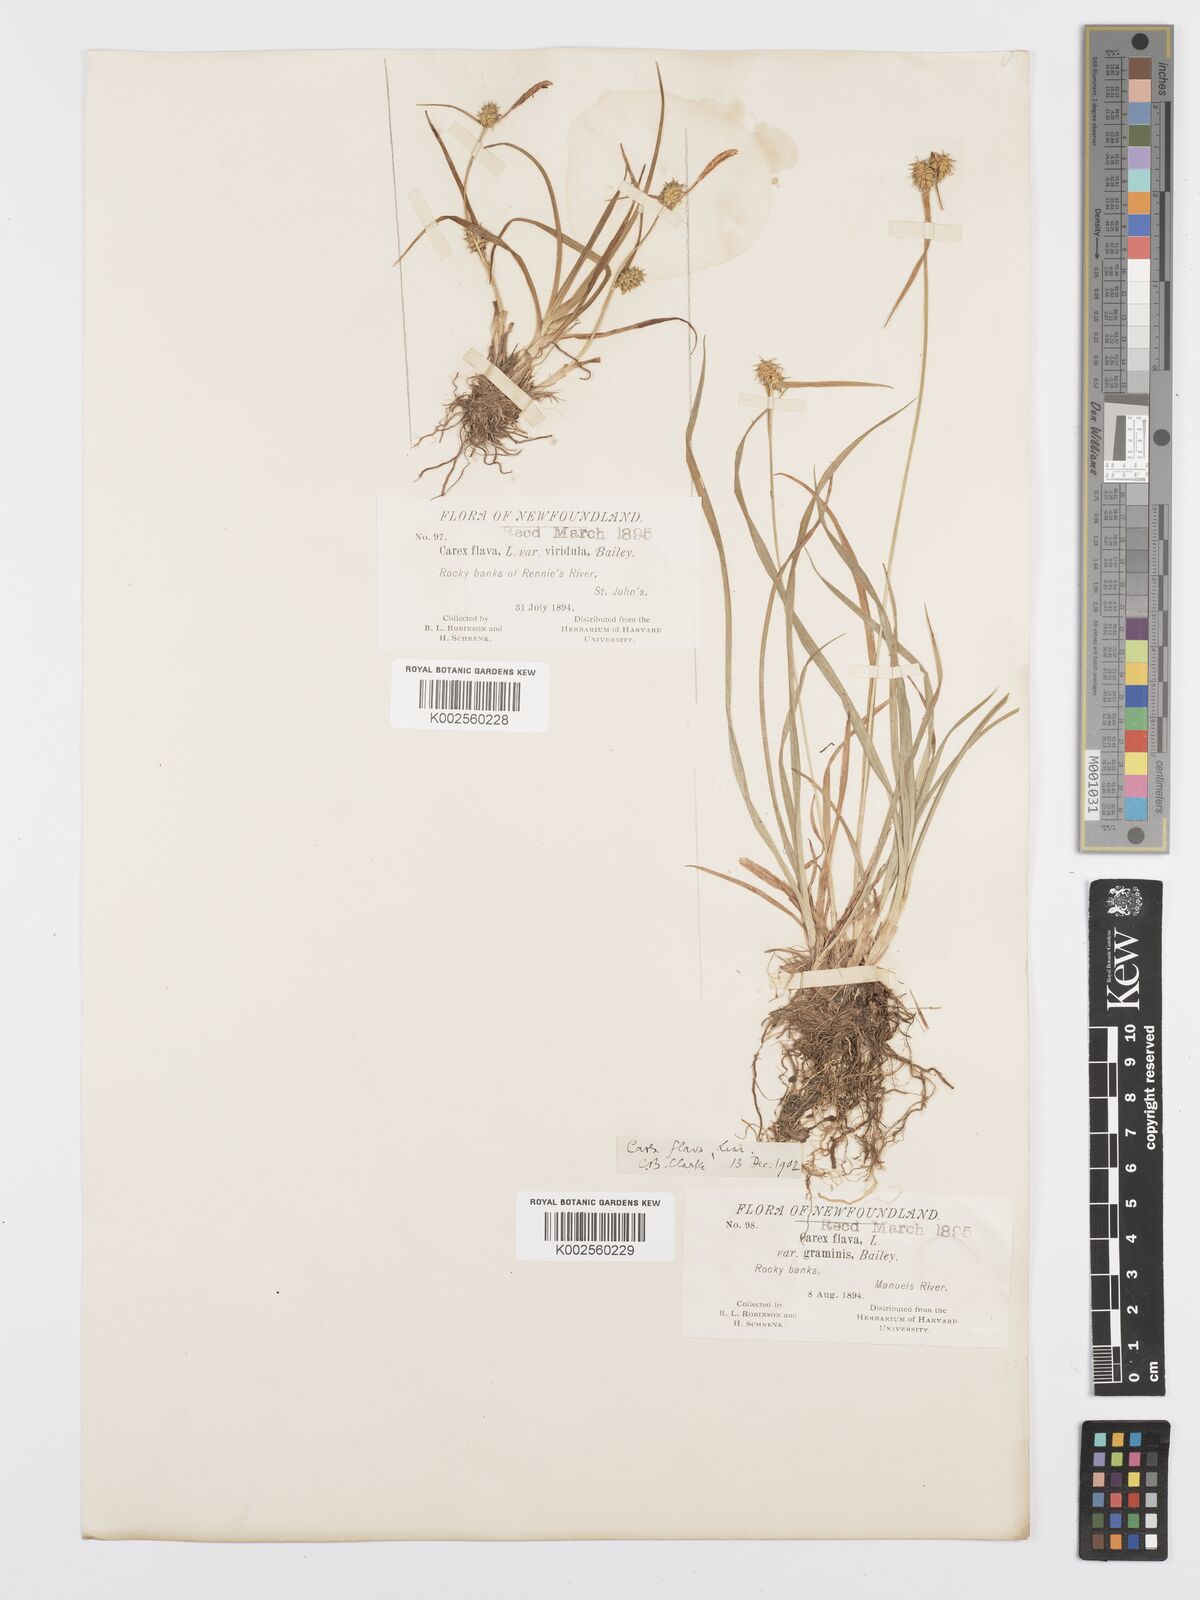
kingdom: Plantae
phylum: Tracheophyta
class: Liliopsida
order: Poales
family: Cyperaceae
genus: Carex
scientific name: Carex cryptolepis
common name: Northeastern sedge
